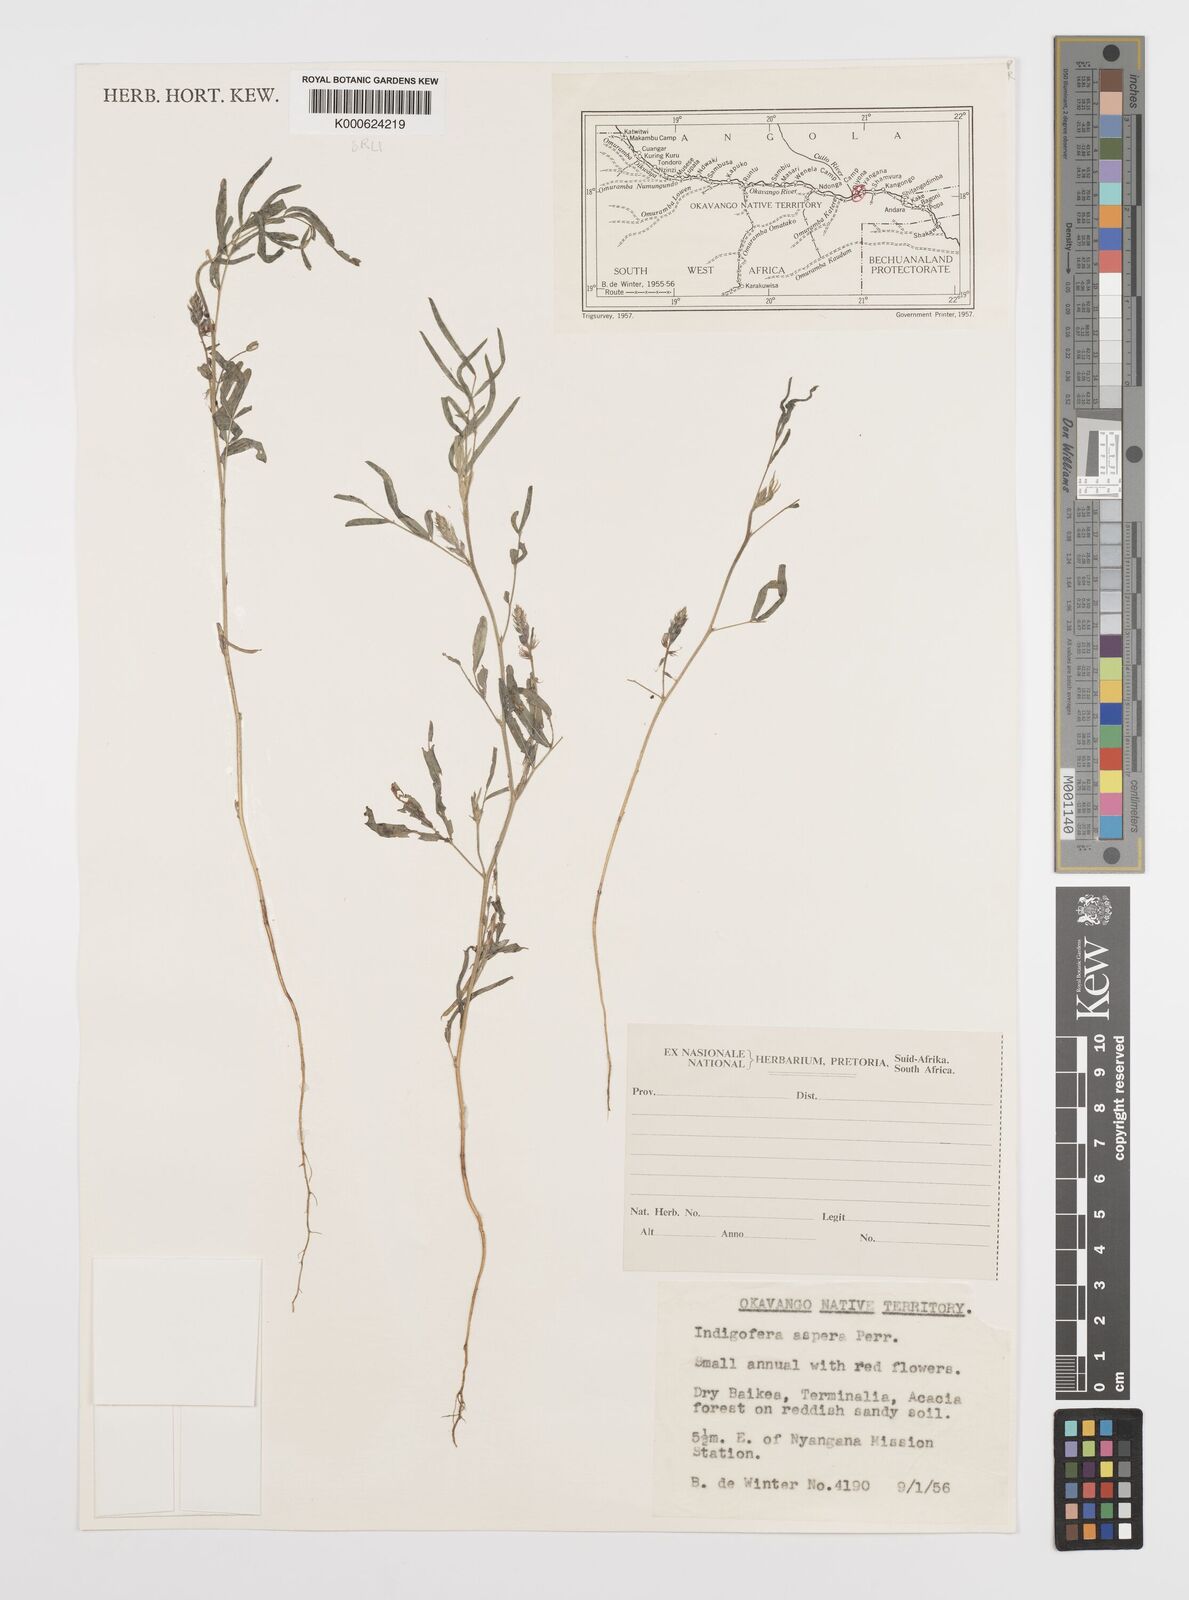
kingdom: Plantae
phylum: Tracheophyta
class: Magnoliopsida
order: Fabales
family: Fabaceae
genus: Indigofera
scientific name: Indigofera charlieriana
